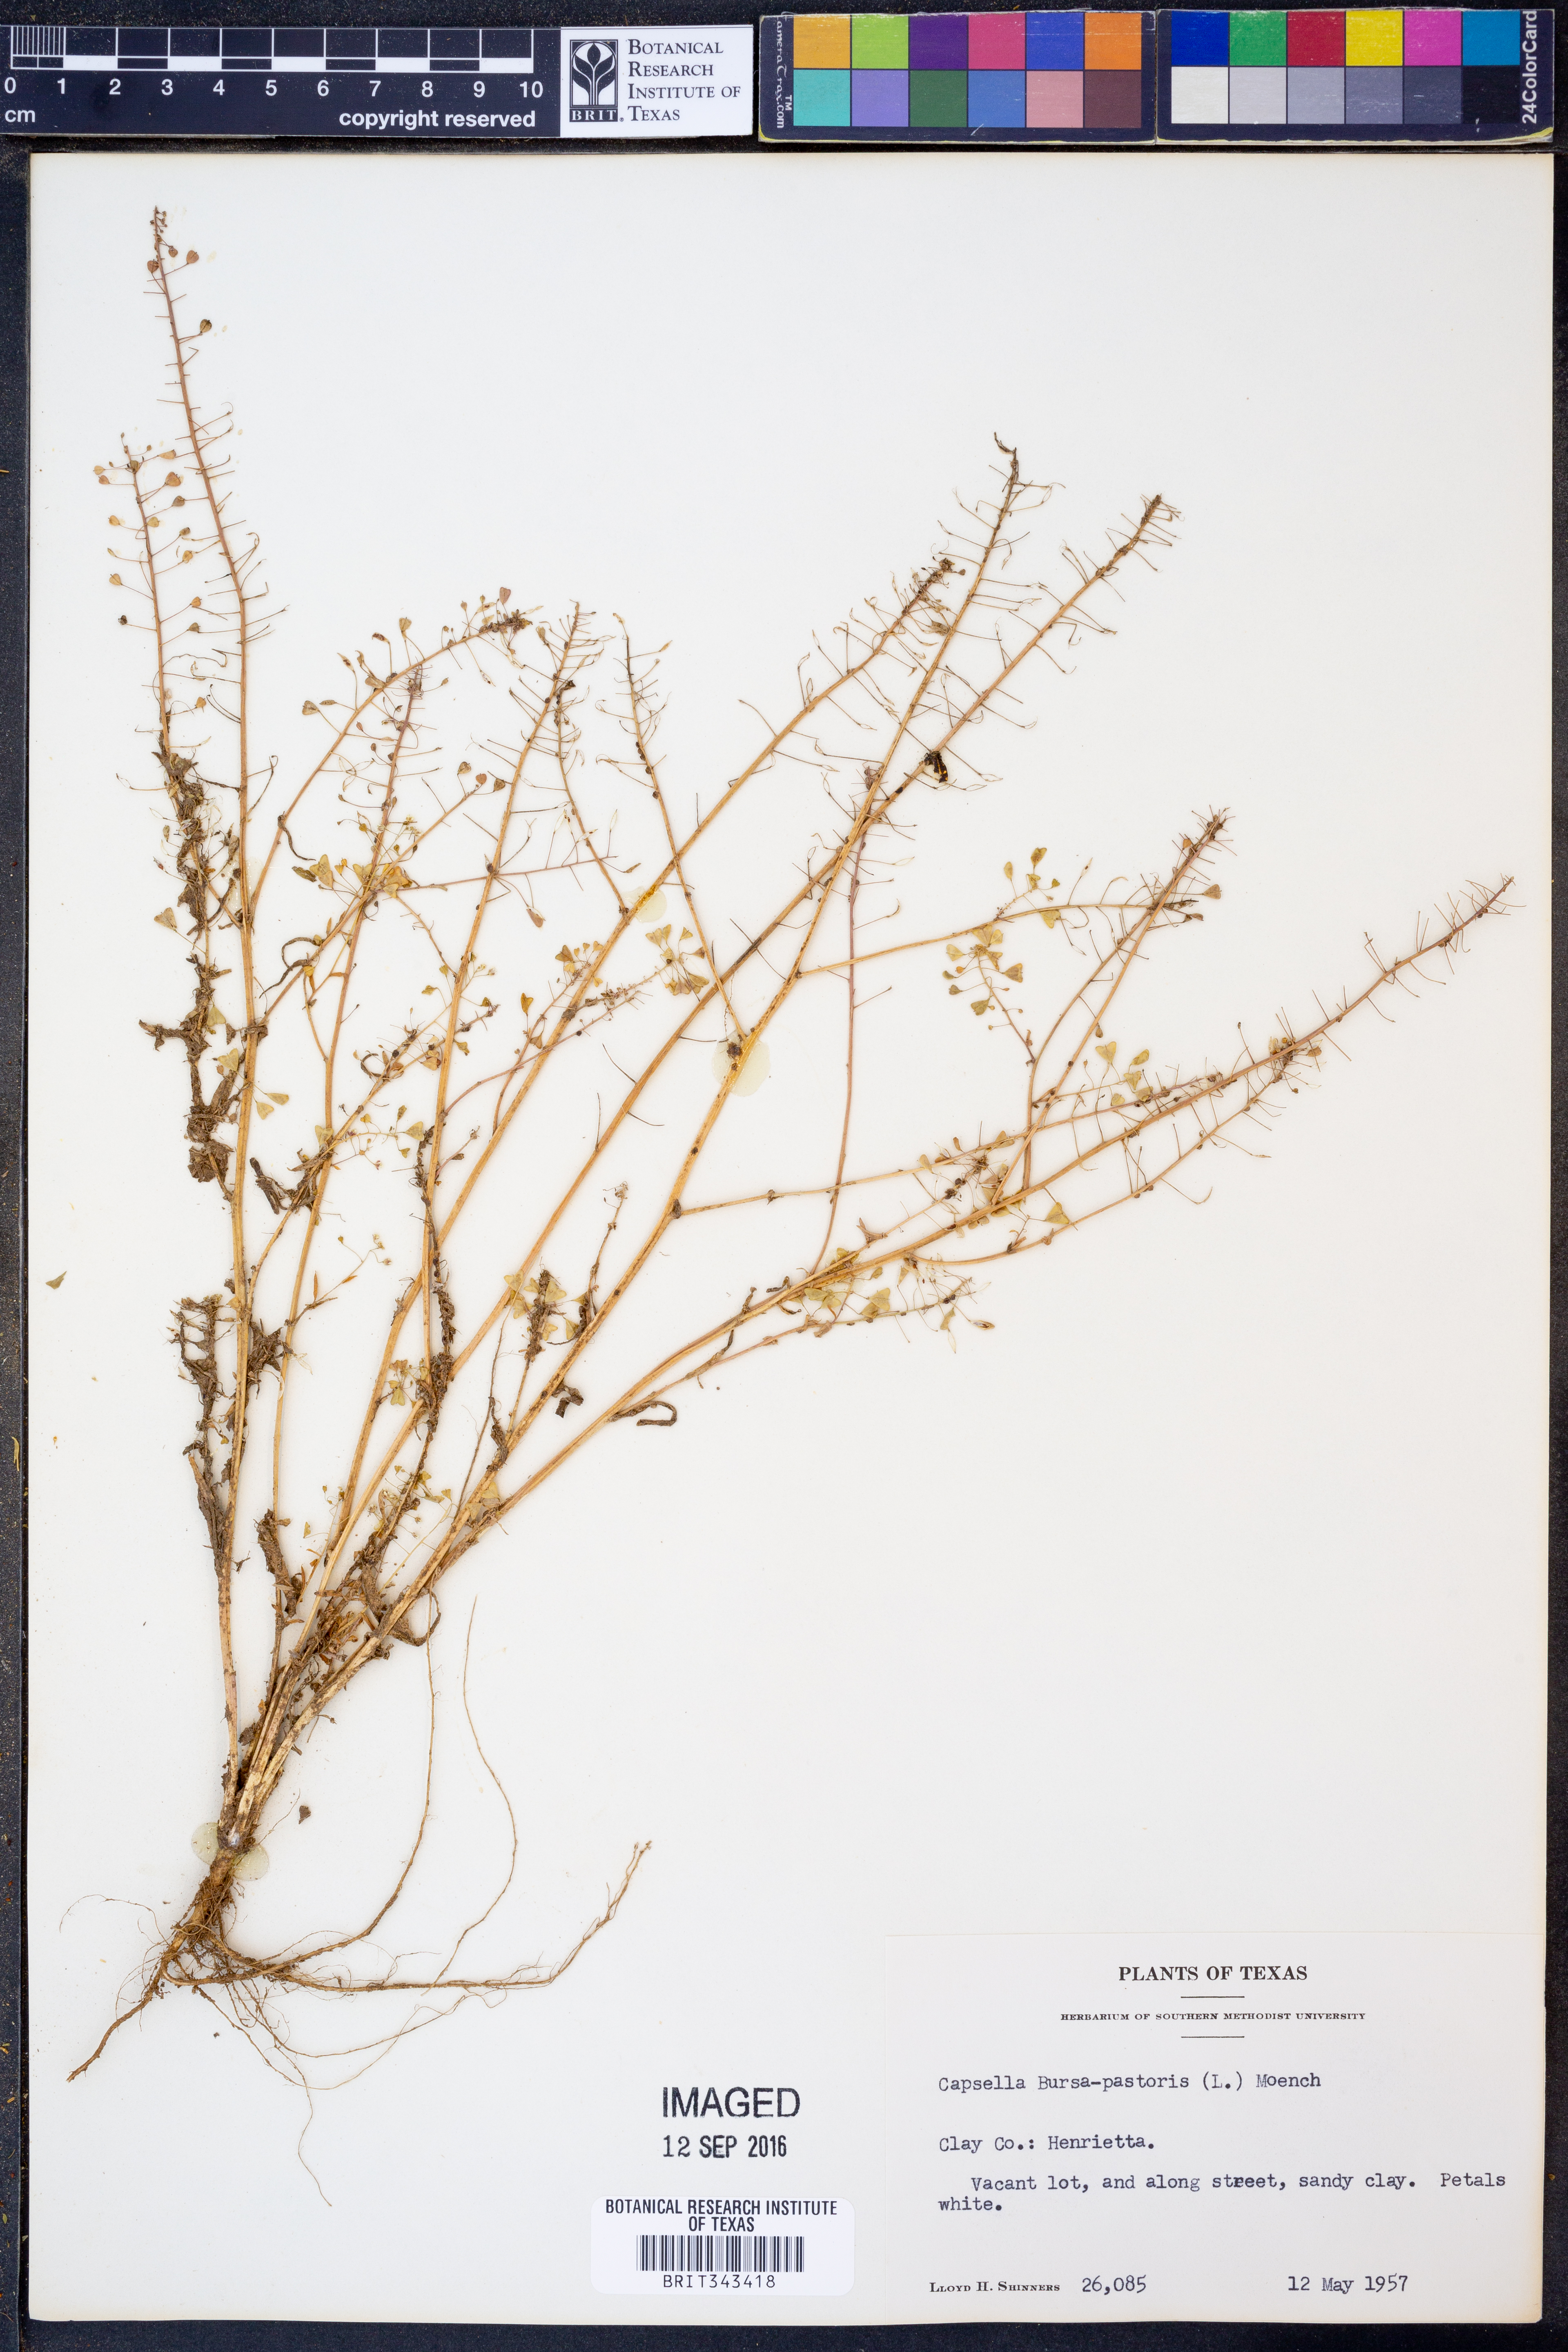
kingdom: Plantae
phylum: Tracheophyta
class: Magnoliopsida
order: Brassicales
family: Brassicaceae
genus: Capsella
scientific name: Capsella bursa-pastoris
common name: Shepherd's purse
